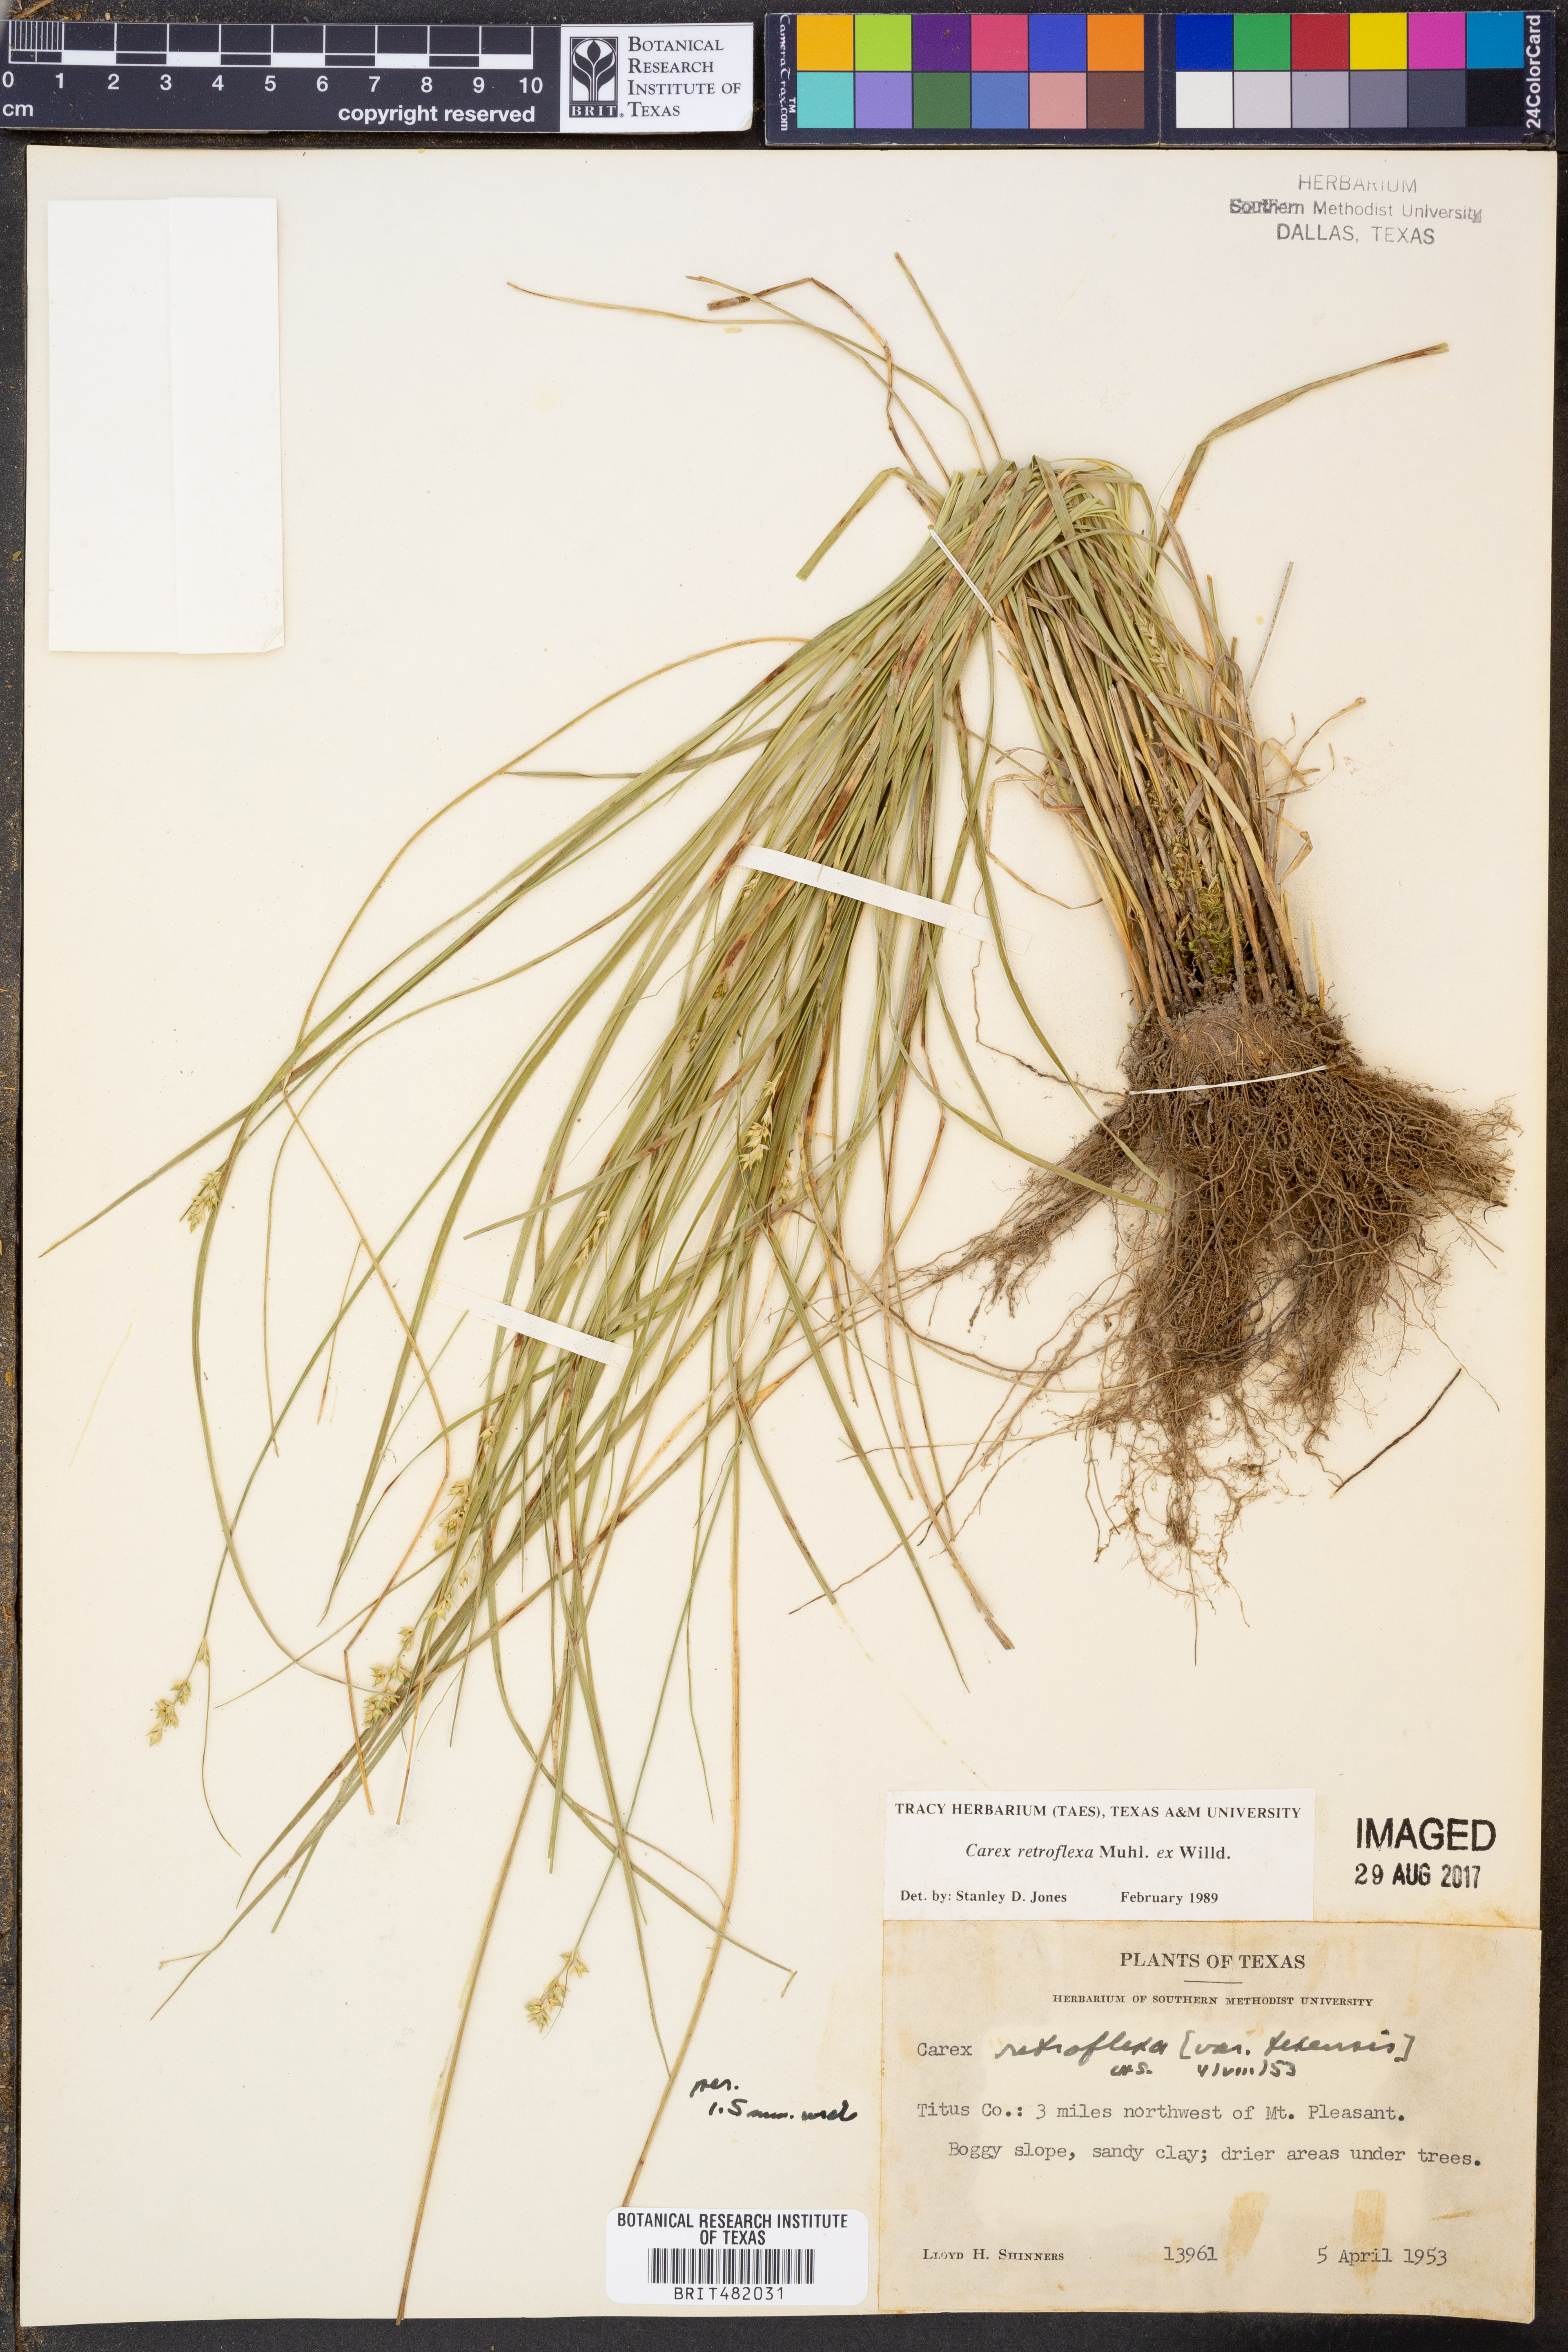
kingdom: Plantae
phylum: Tracheophyta
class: Liliopsida
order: Poales
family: Cyperaceae
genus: Carex
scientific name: Carex retroflexa
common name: Reflexed sedge
